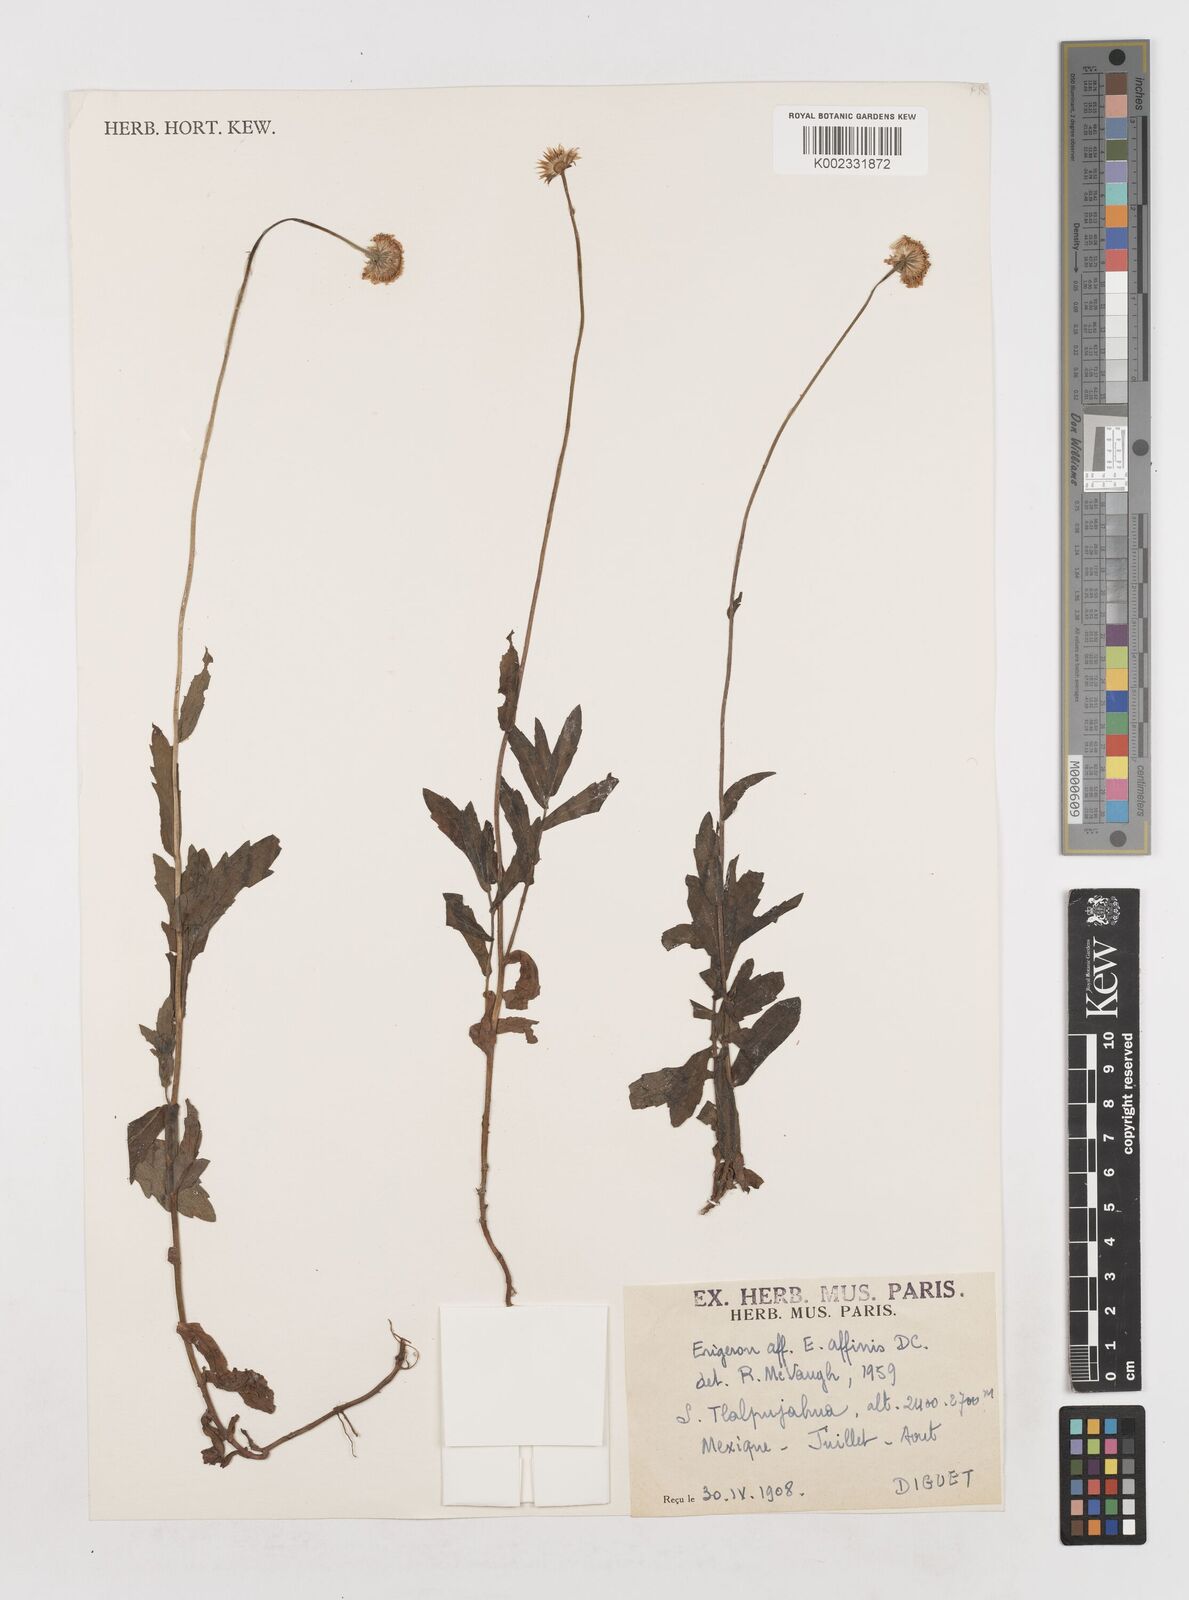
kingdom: Plantae
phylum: Tracheophyta
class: Magnoliopsida
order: Asterales
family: Asteraceae
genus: Erigeron
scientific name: Erigeron
